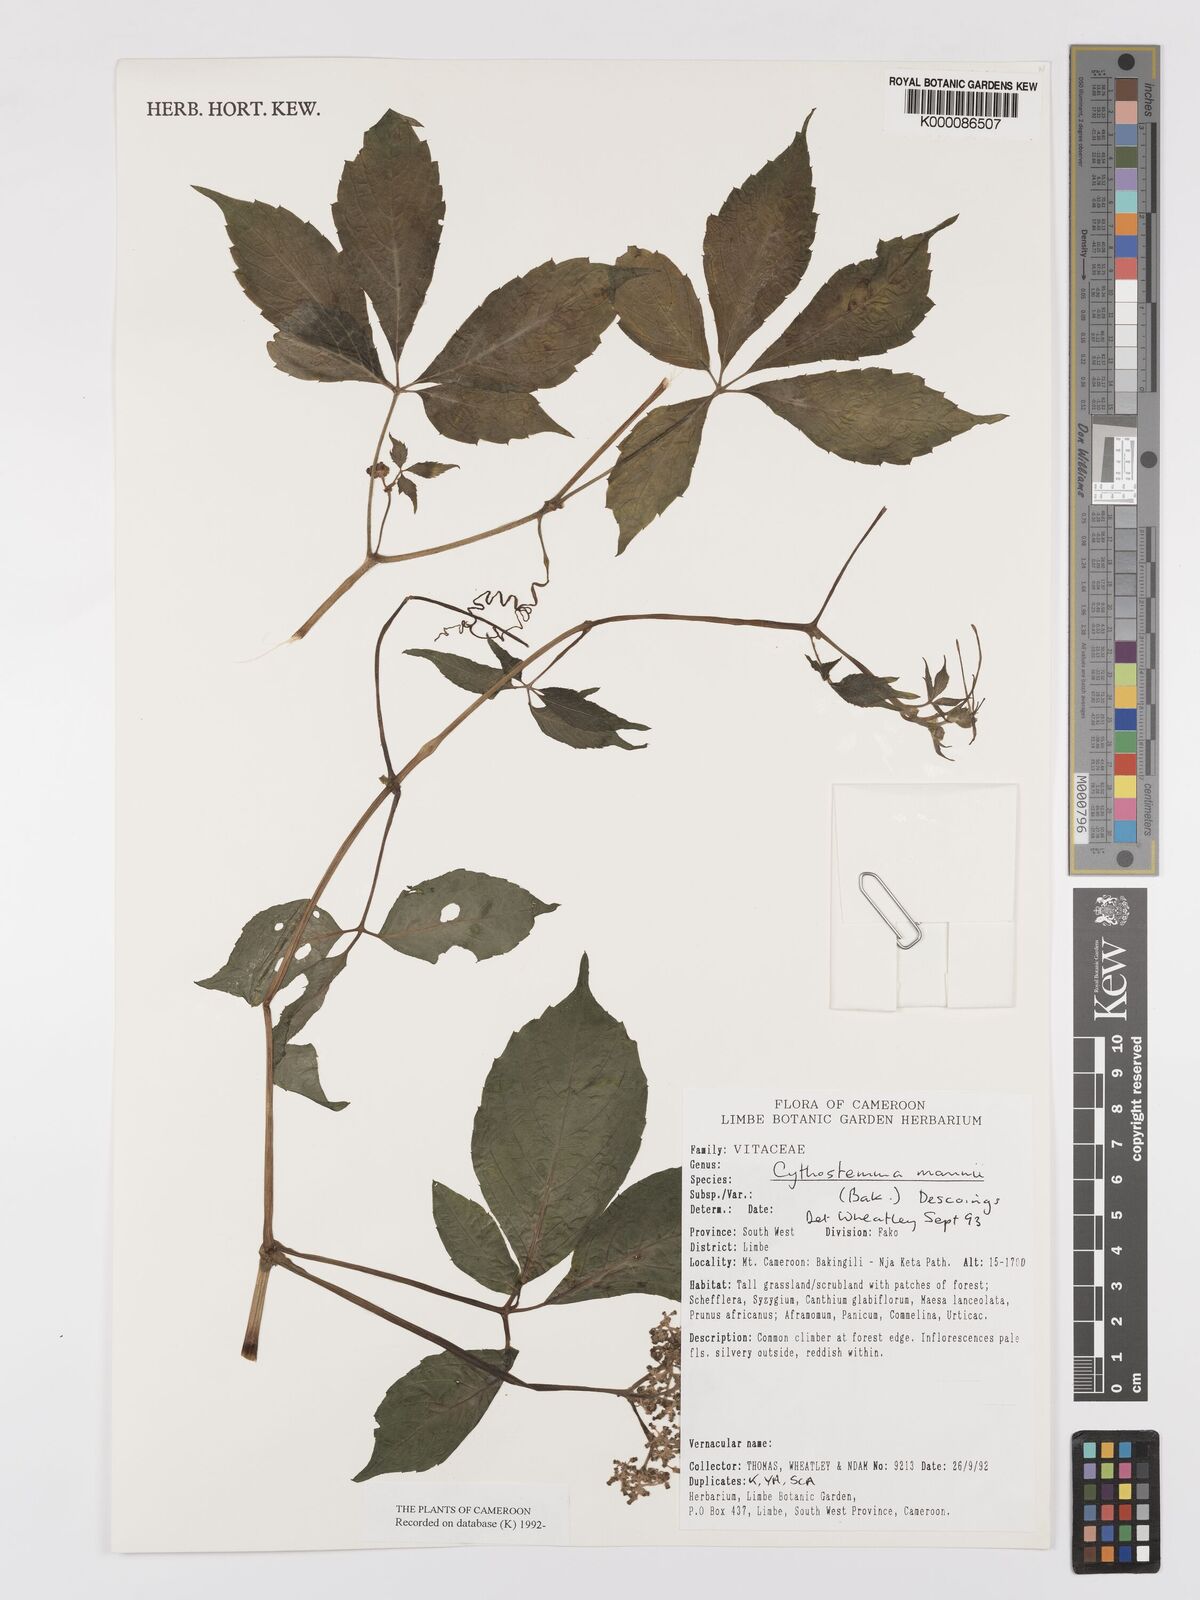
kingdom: Plantae
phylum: Tracheophyta
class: Magnoliopsida
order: Vitales
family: Vitaceae
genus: Cyphostemma
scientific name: Cyphostemma mannii
